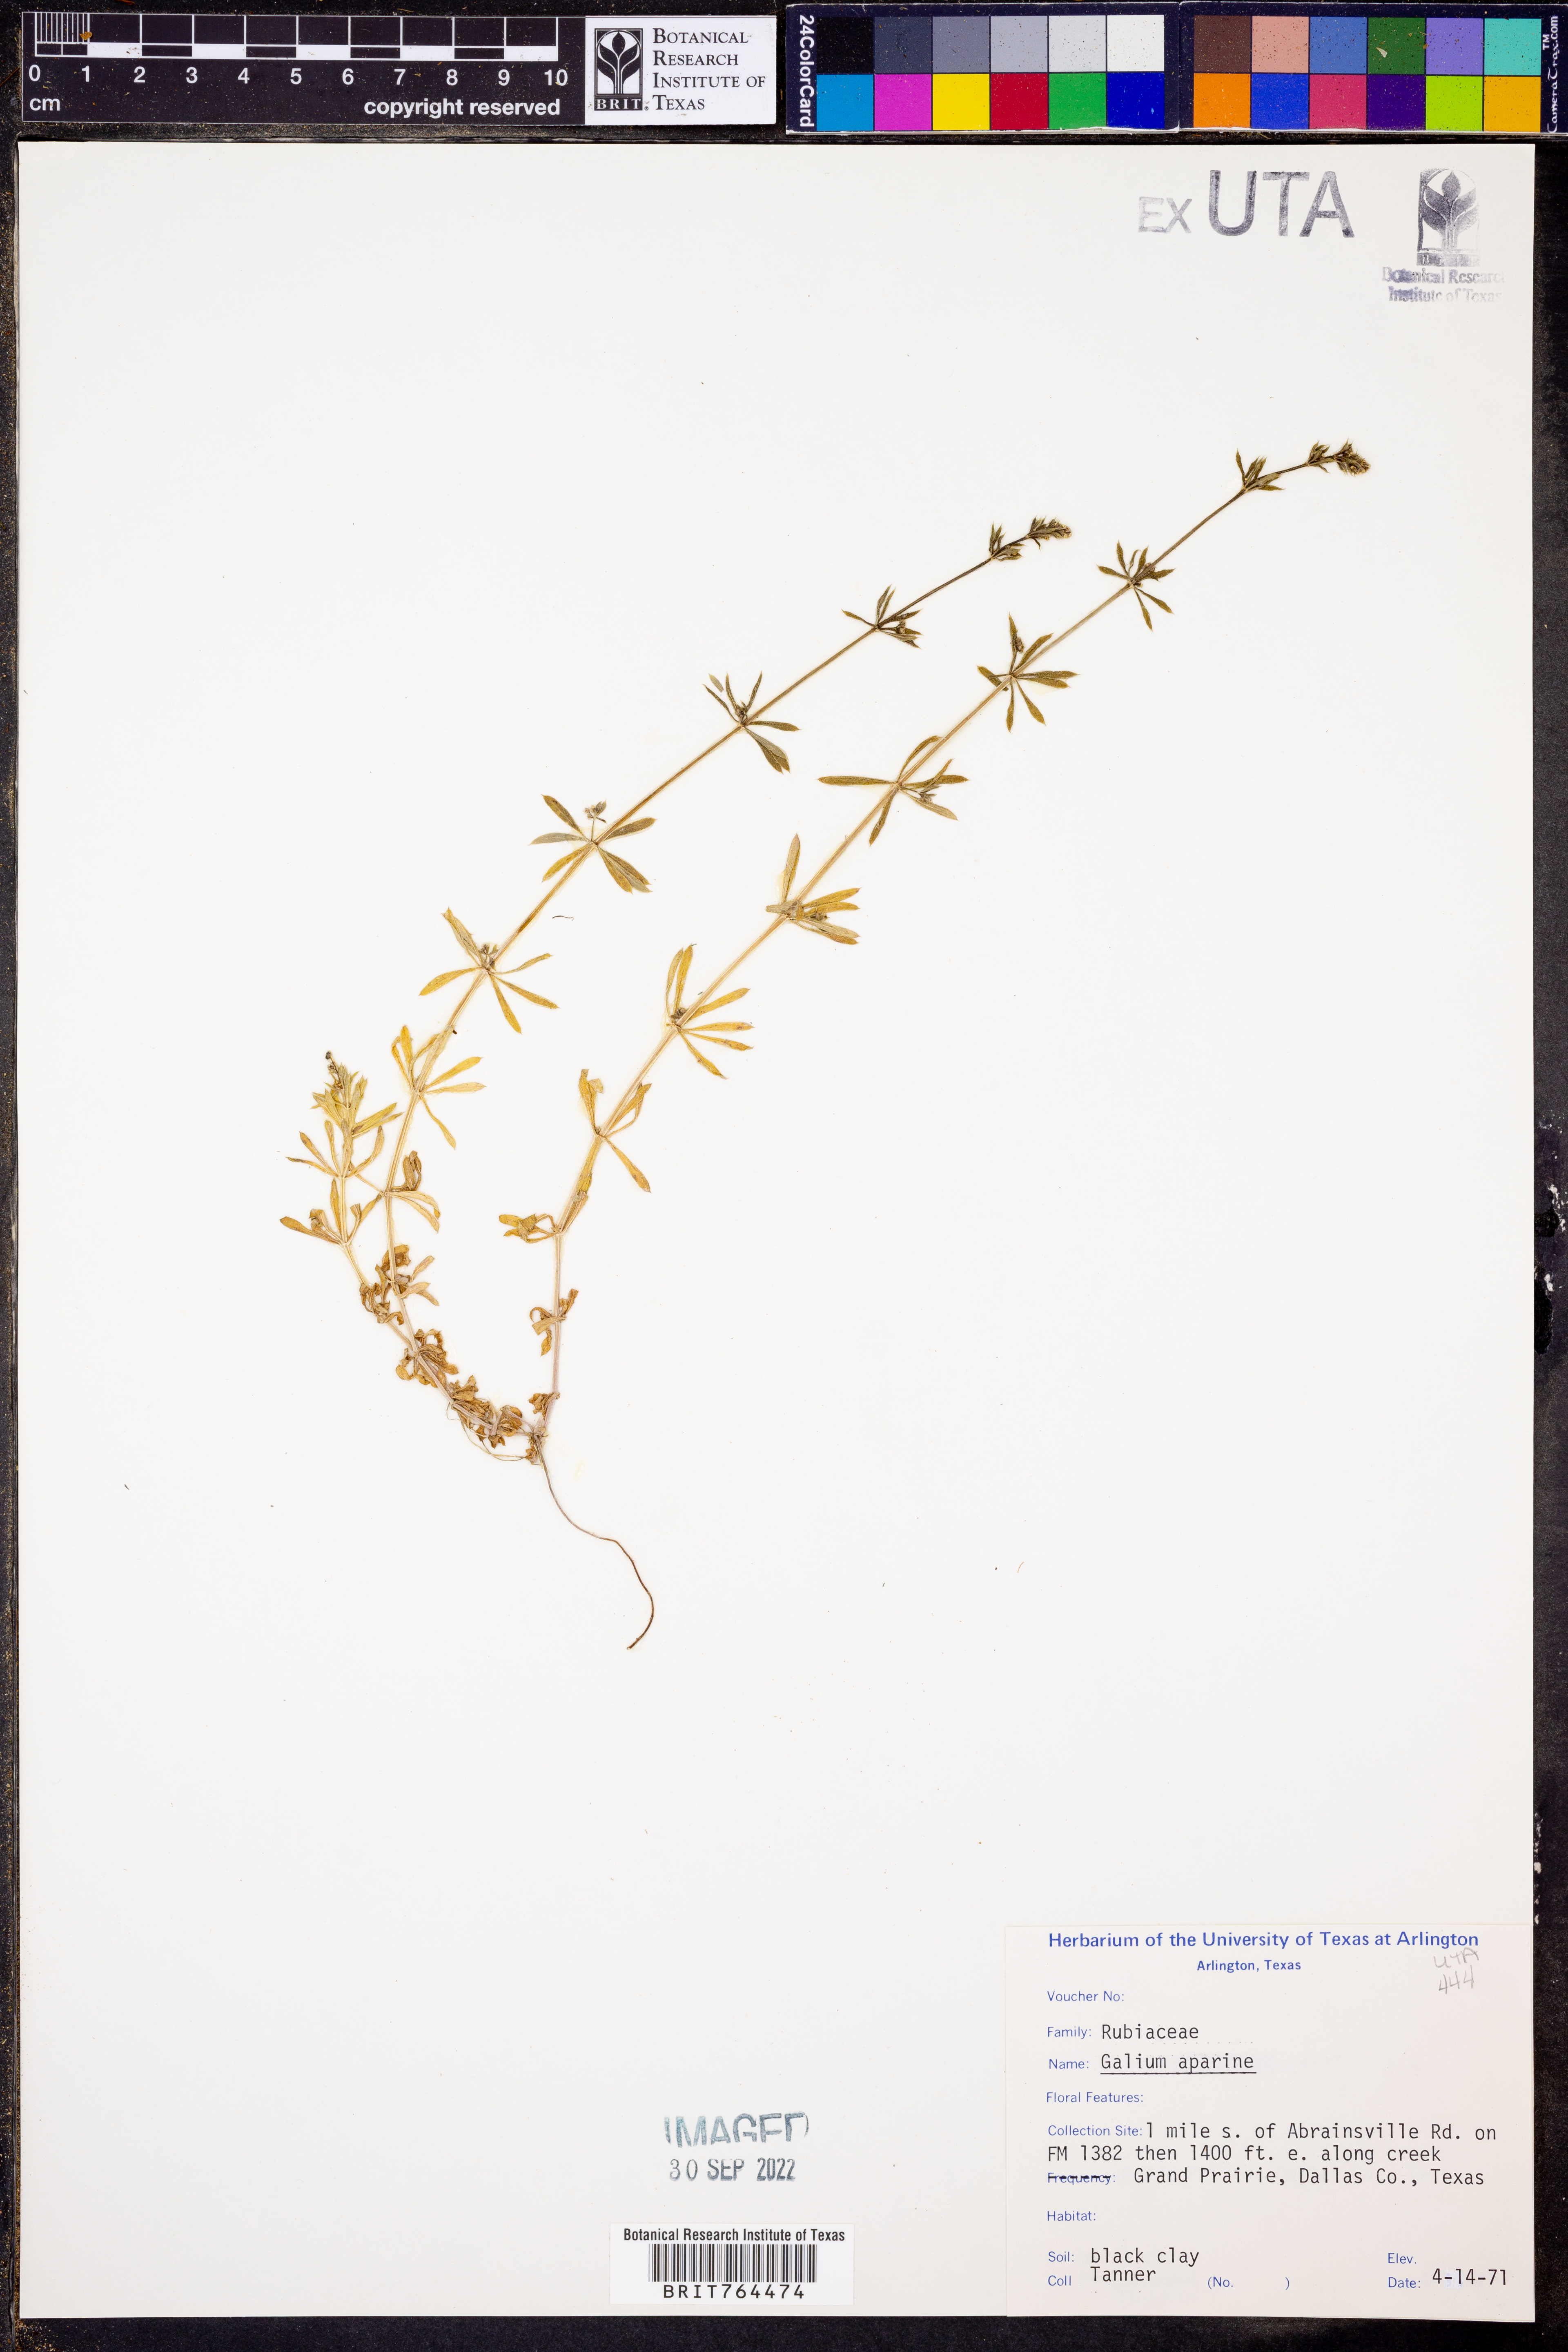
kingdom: Plantae
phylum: Tracheophyta
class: Magnoliopsida
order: Gentianales
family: Rubiaceae
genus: Galium
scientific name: Galium aparine
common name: Cleavers
